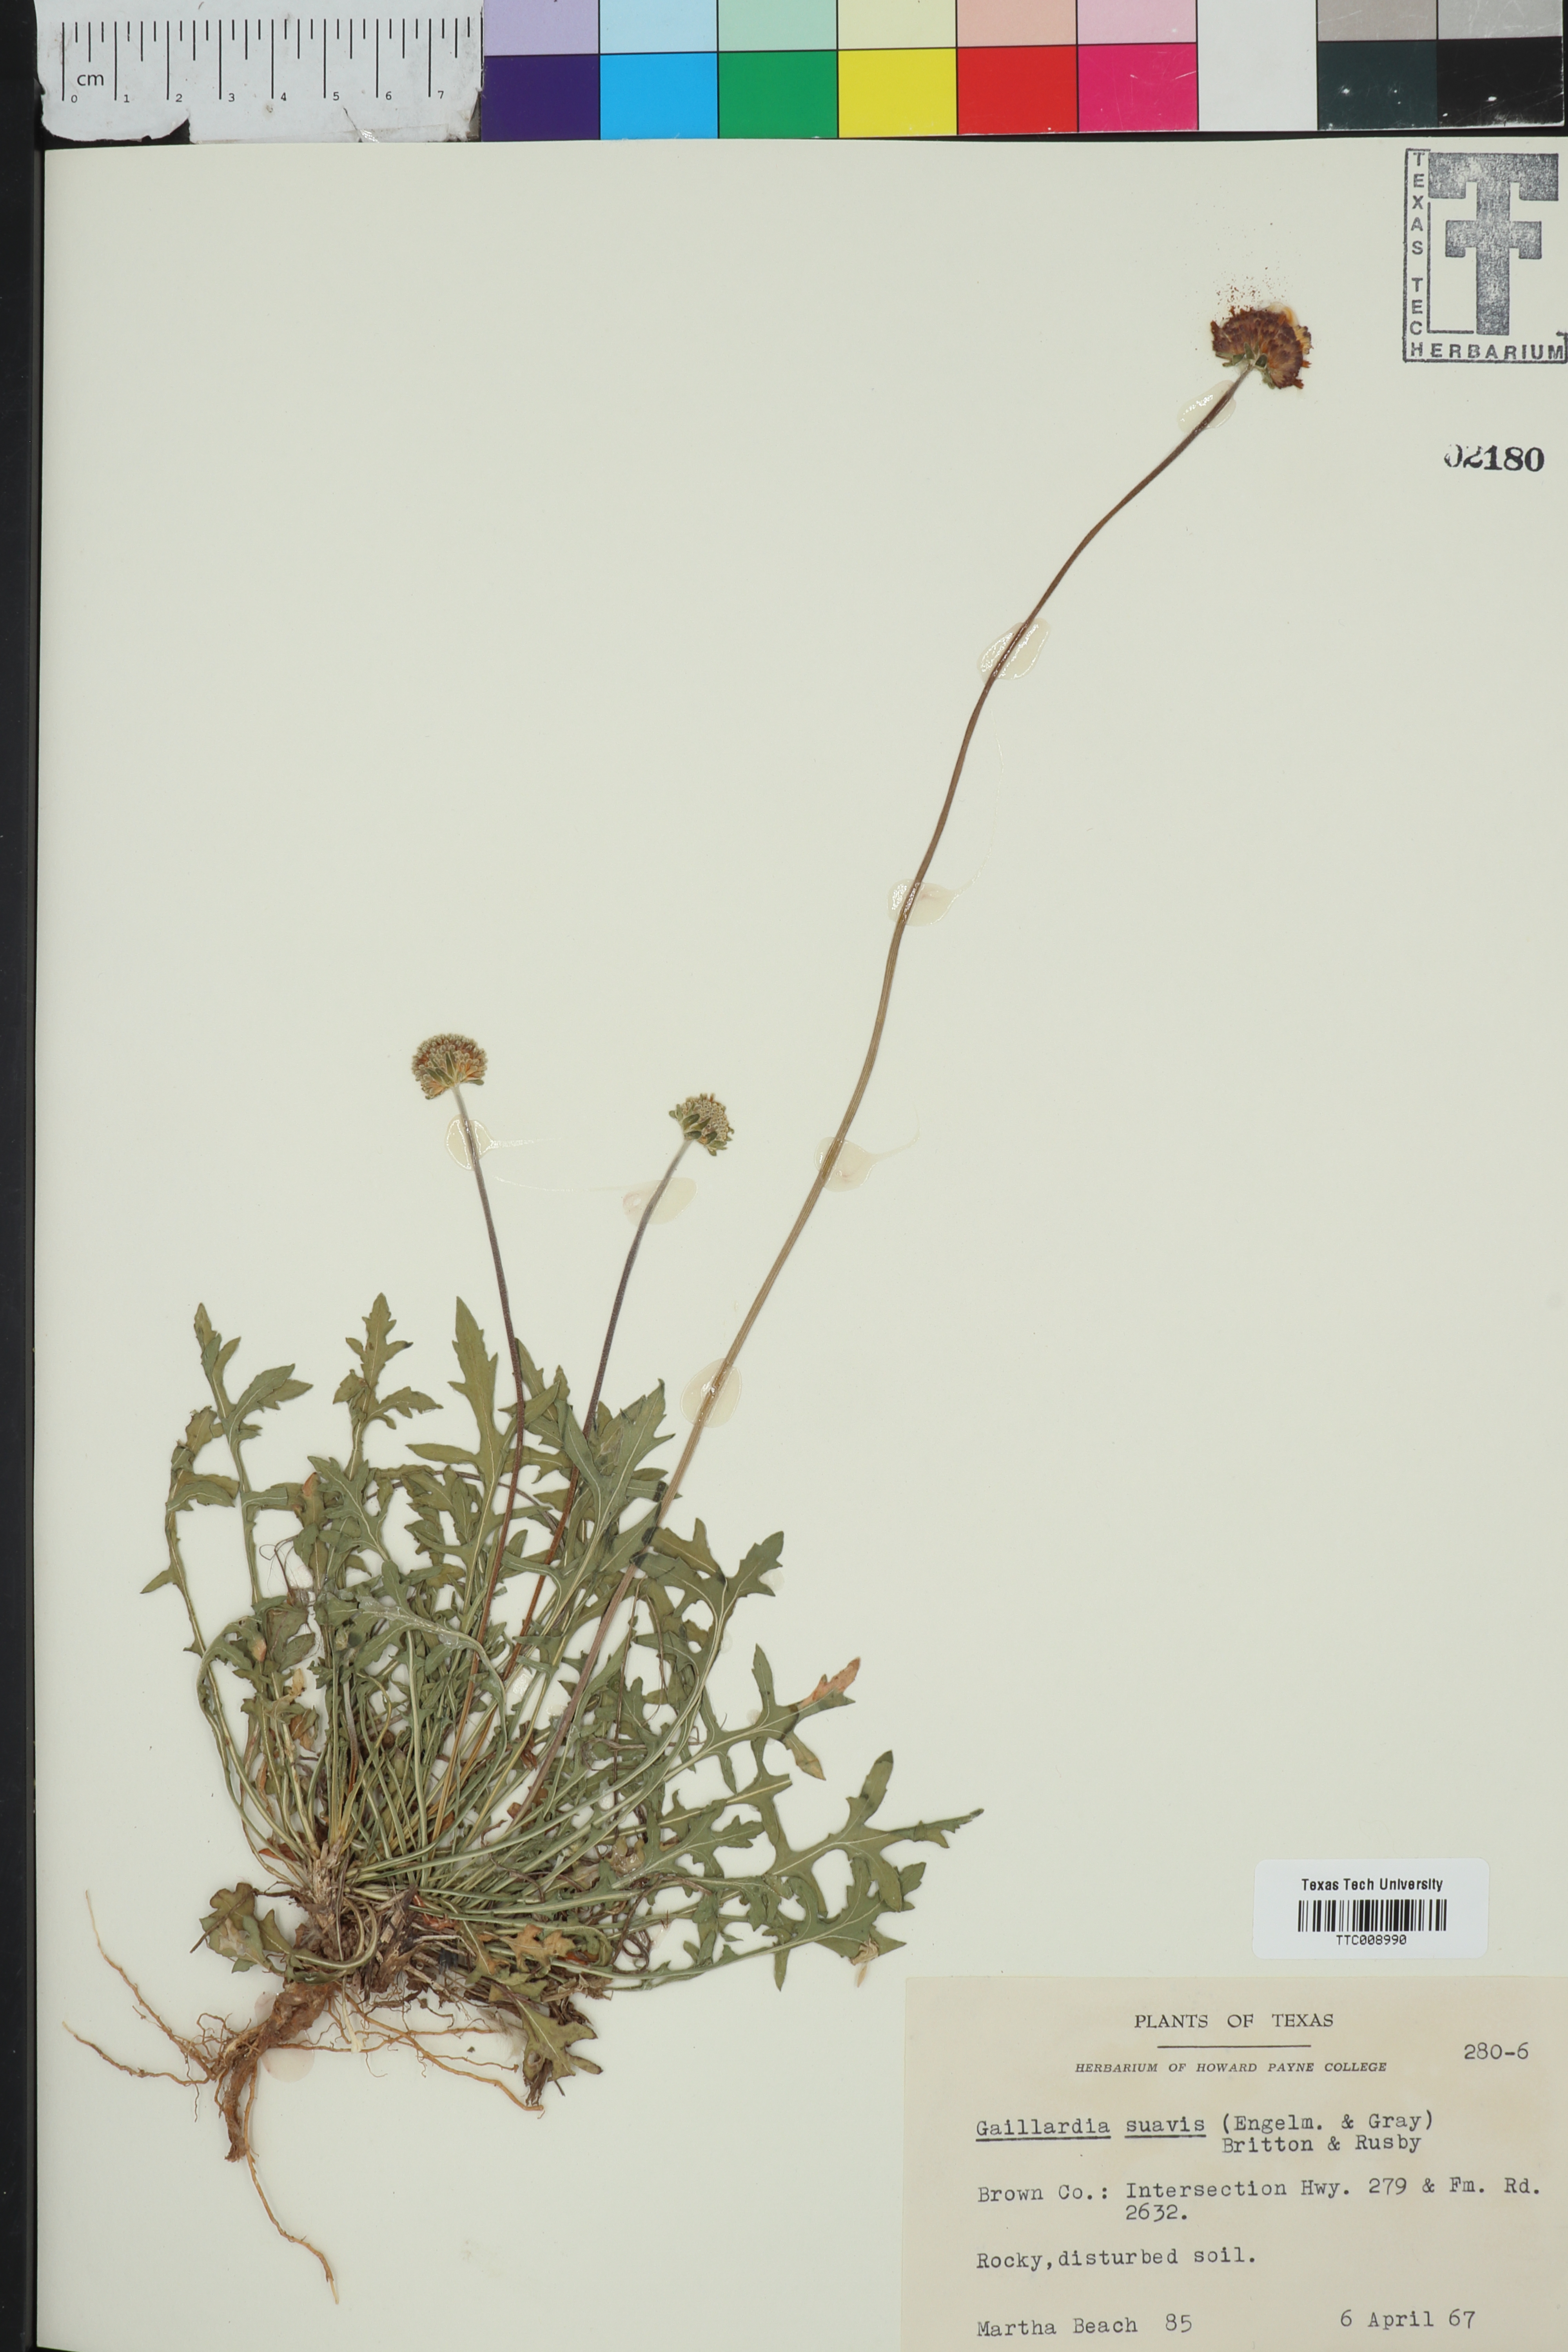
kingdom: Plantae
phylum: Tracheophyta
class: Magnoliopsida
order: Asterales
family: Asteraceae
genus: Gaillardia
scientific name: Gaillardia suavis
